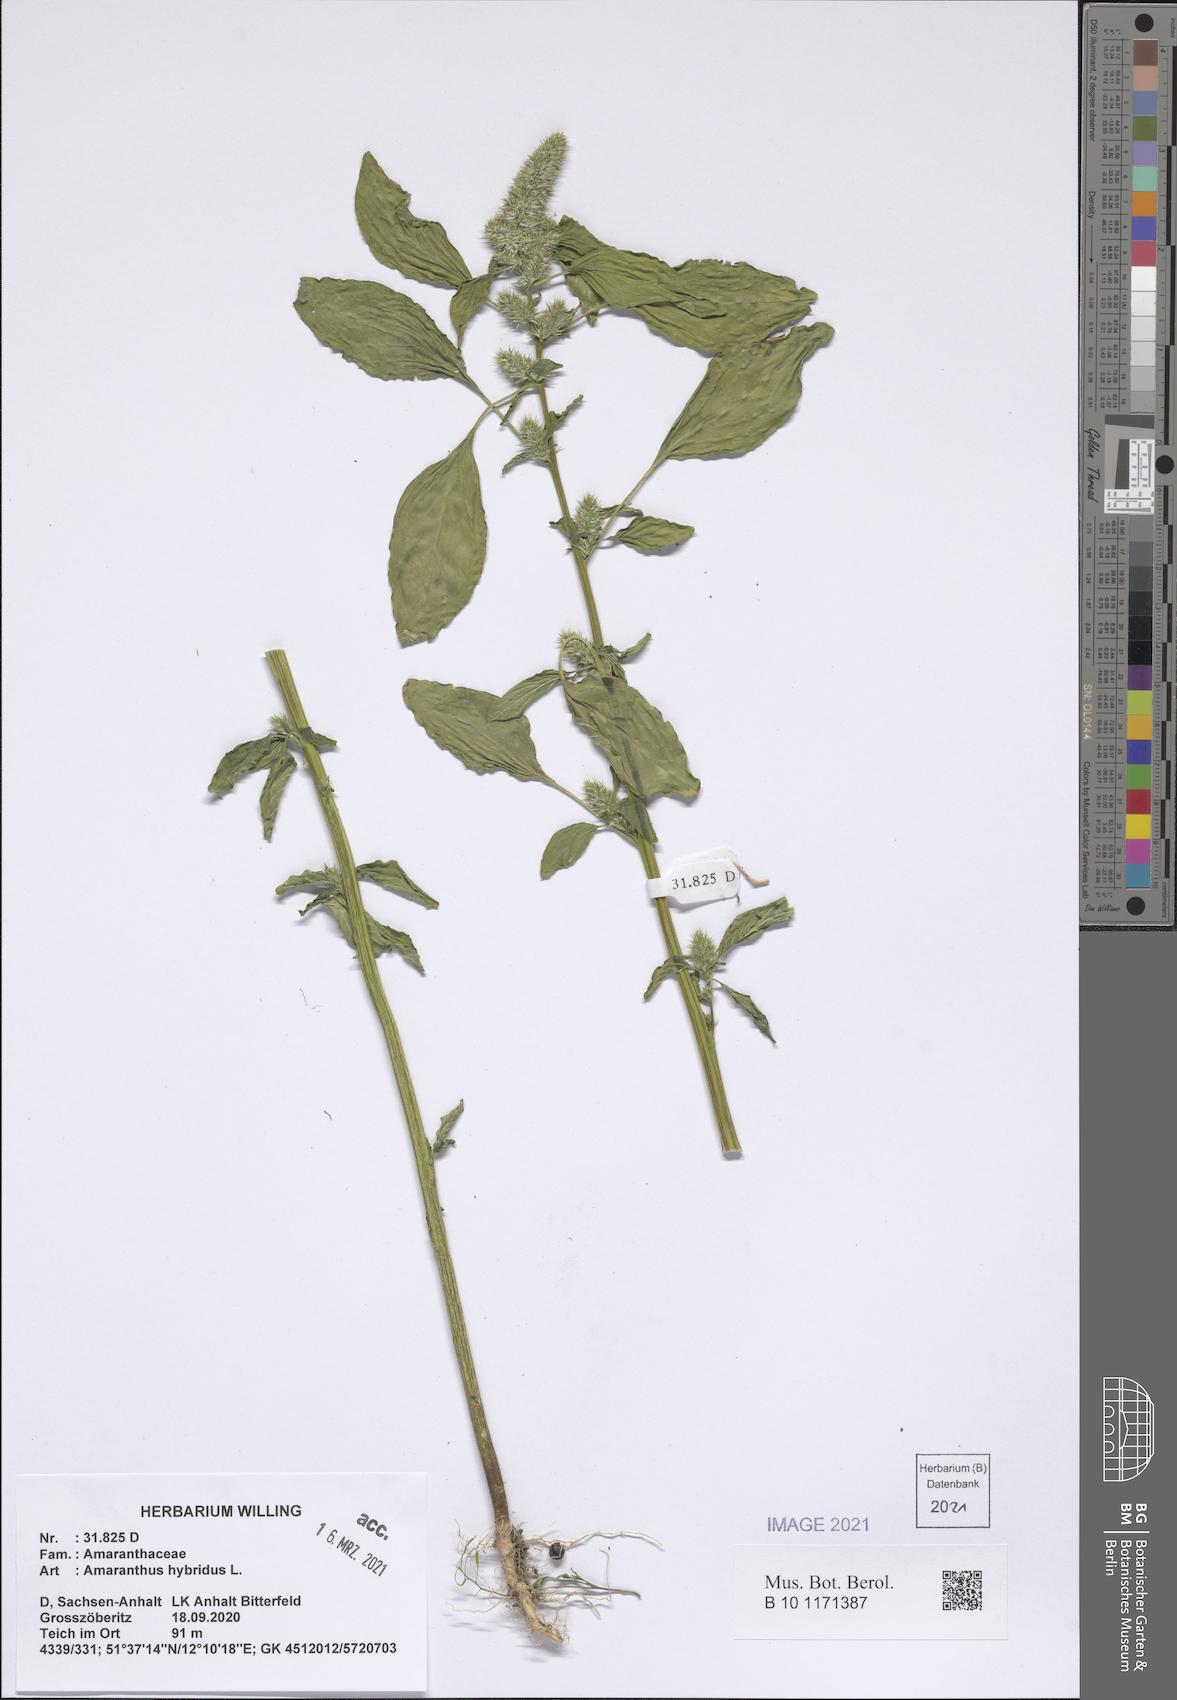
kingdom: Plantae
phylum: Tracheophyta
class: Magnoliopsida
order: Caryophyllales
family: Amaranthaceae
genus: Amaranthus
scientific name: Amaranthus hybridus
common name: Green amaranth
